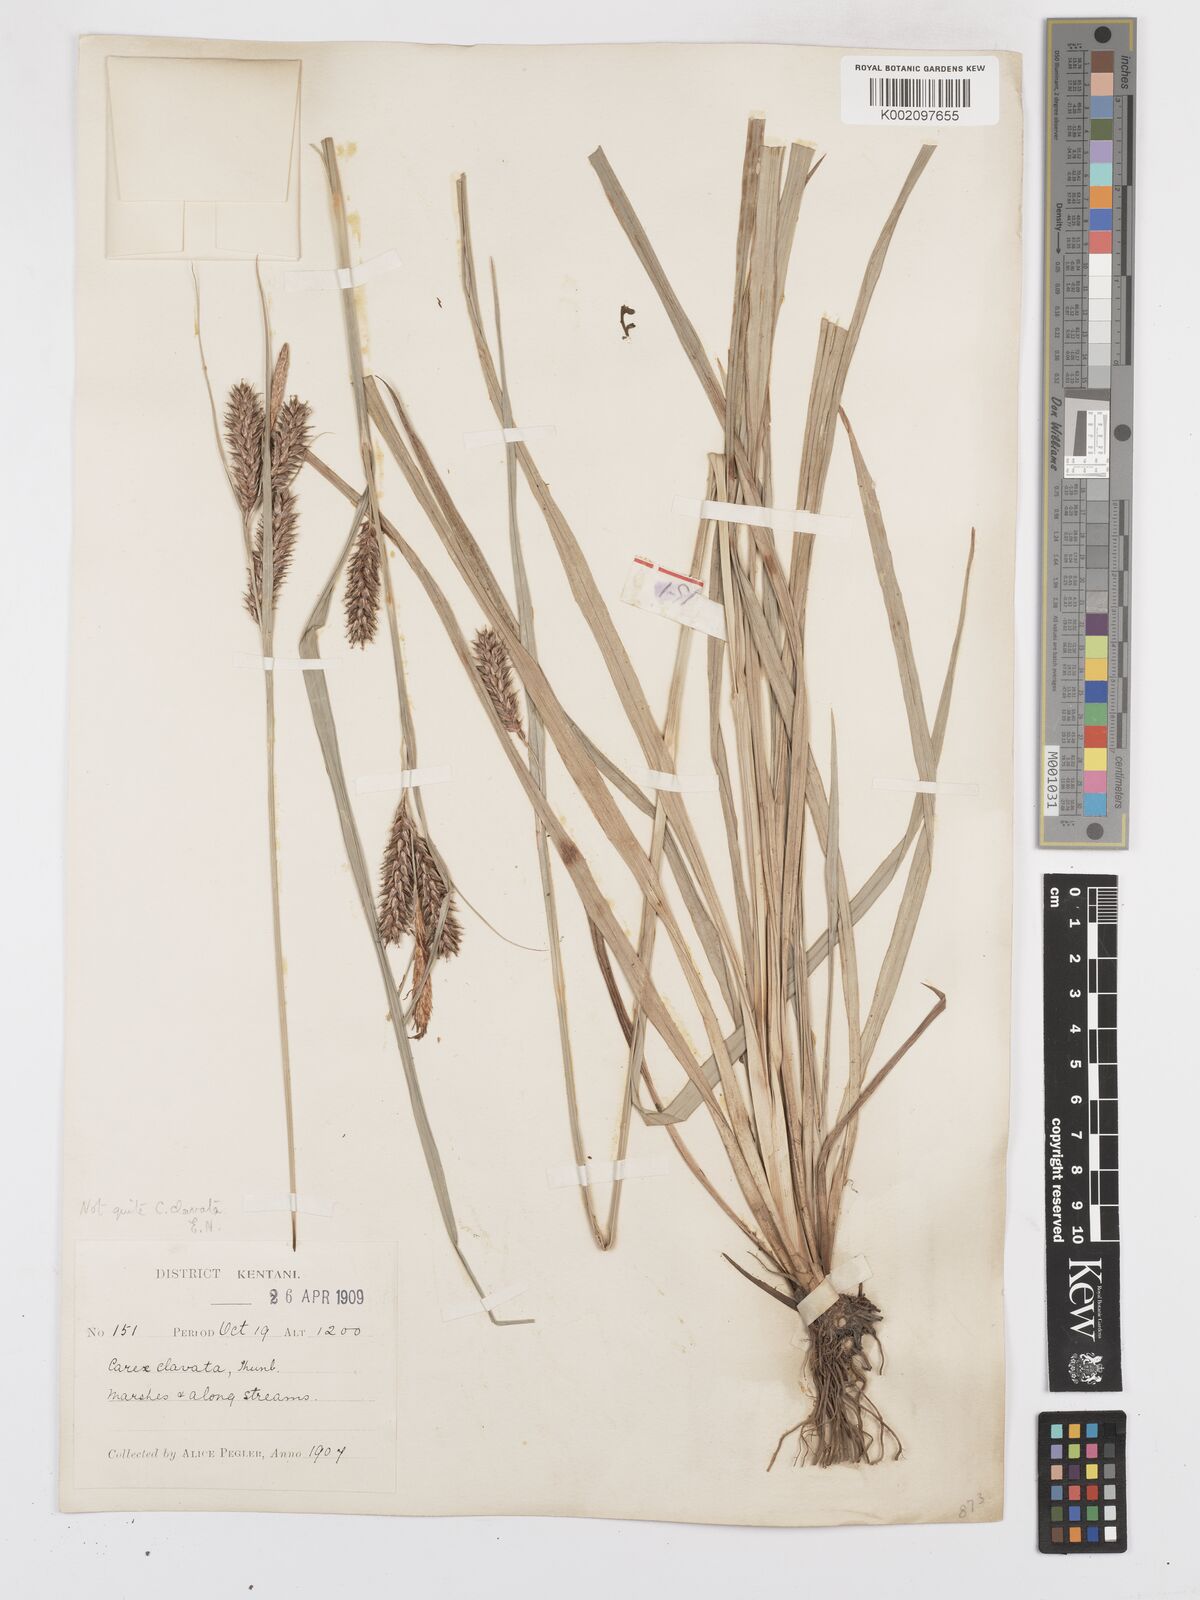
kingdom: Plantae
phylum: Tracheophyta
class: Liliopsida
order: Poales
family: Cyperaceae
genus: Carex
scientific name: Carex clavata
